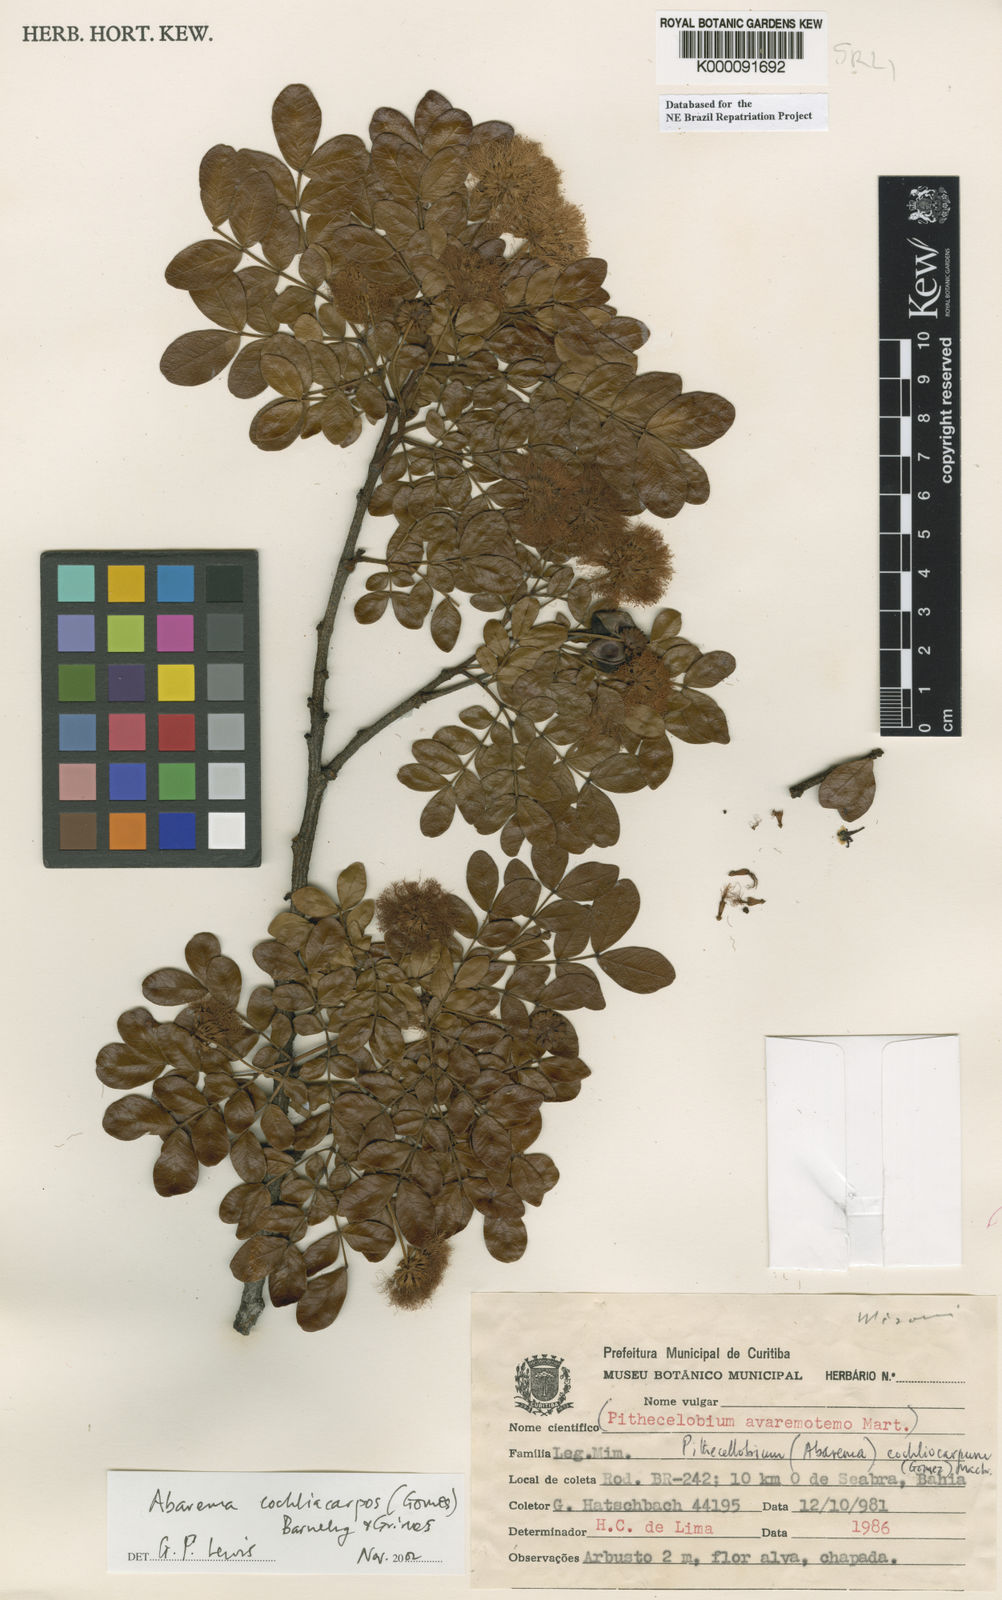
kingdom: Plantae
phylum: Tracheophyta
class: Magnoliopsida
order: Fabales
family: Fabaceae
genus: Abarema
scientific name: Abarema
